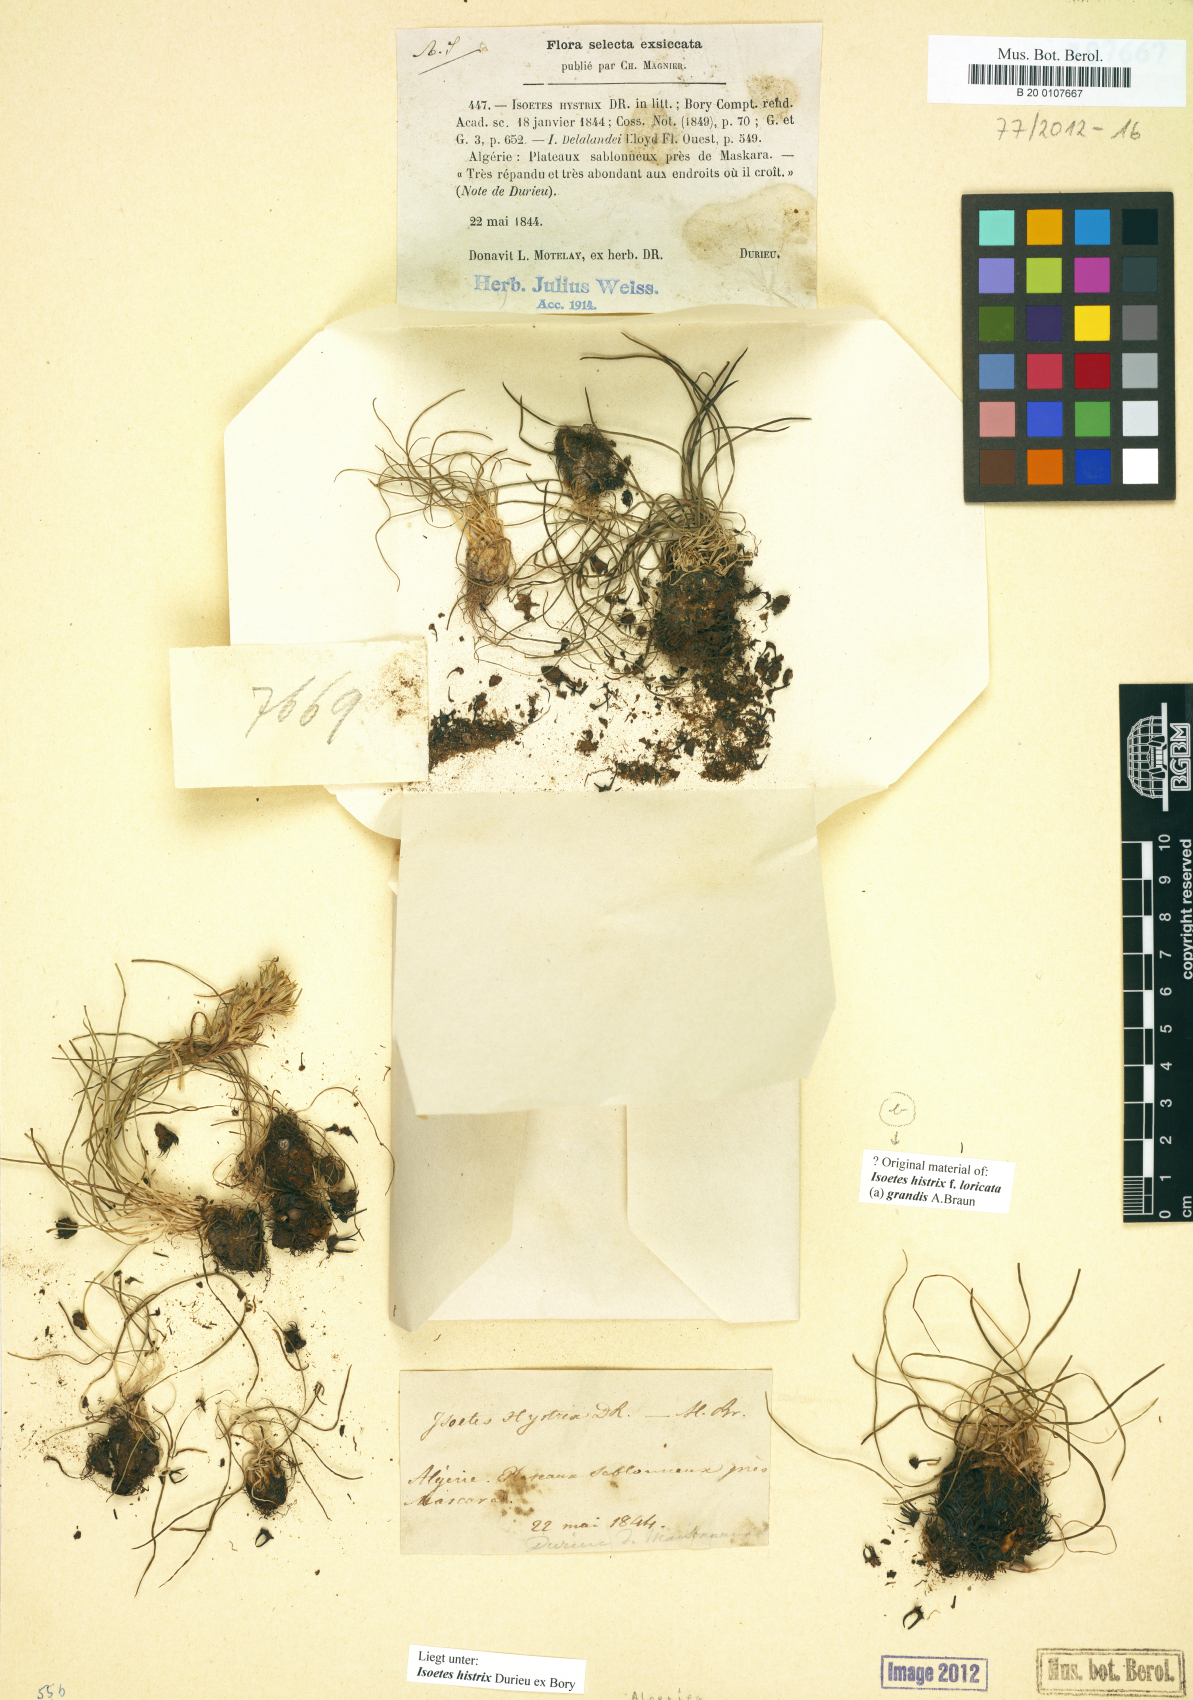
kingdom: Plantae
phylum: Tracheophyta
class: Lycopodiopsida
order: Isoetales
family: Isoetaceae
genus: Isoetes
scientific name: Isoetes histrix
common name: Land quillwort
